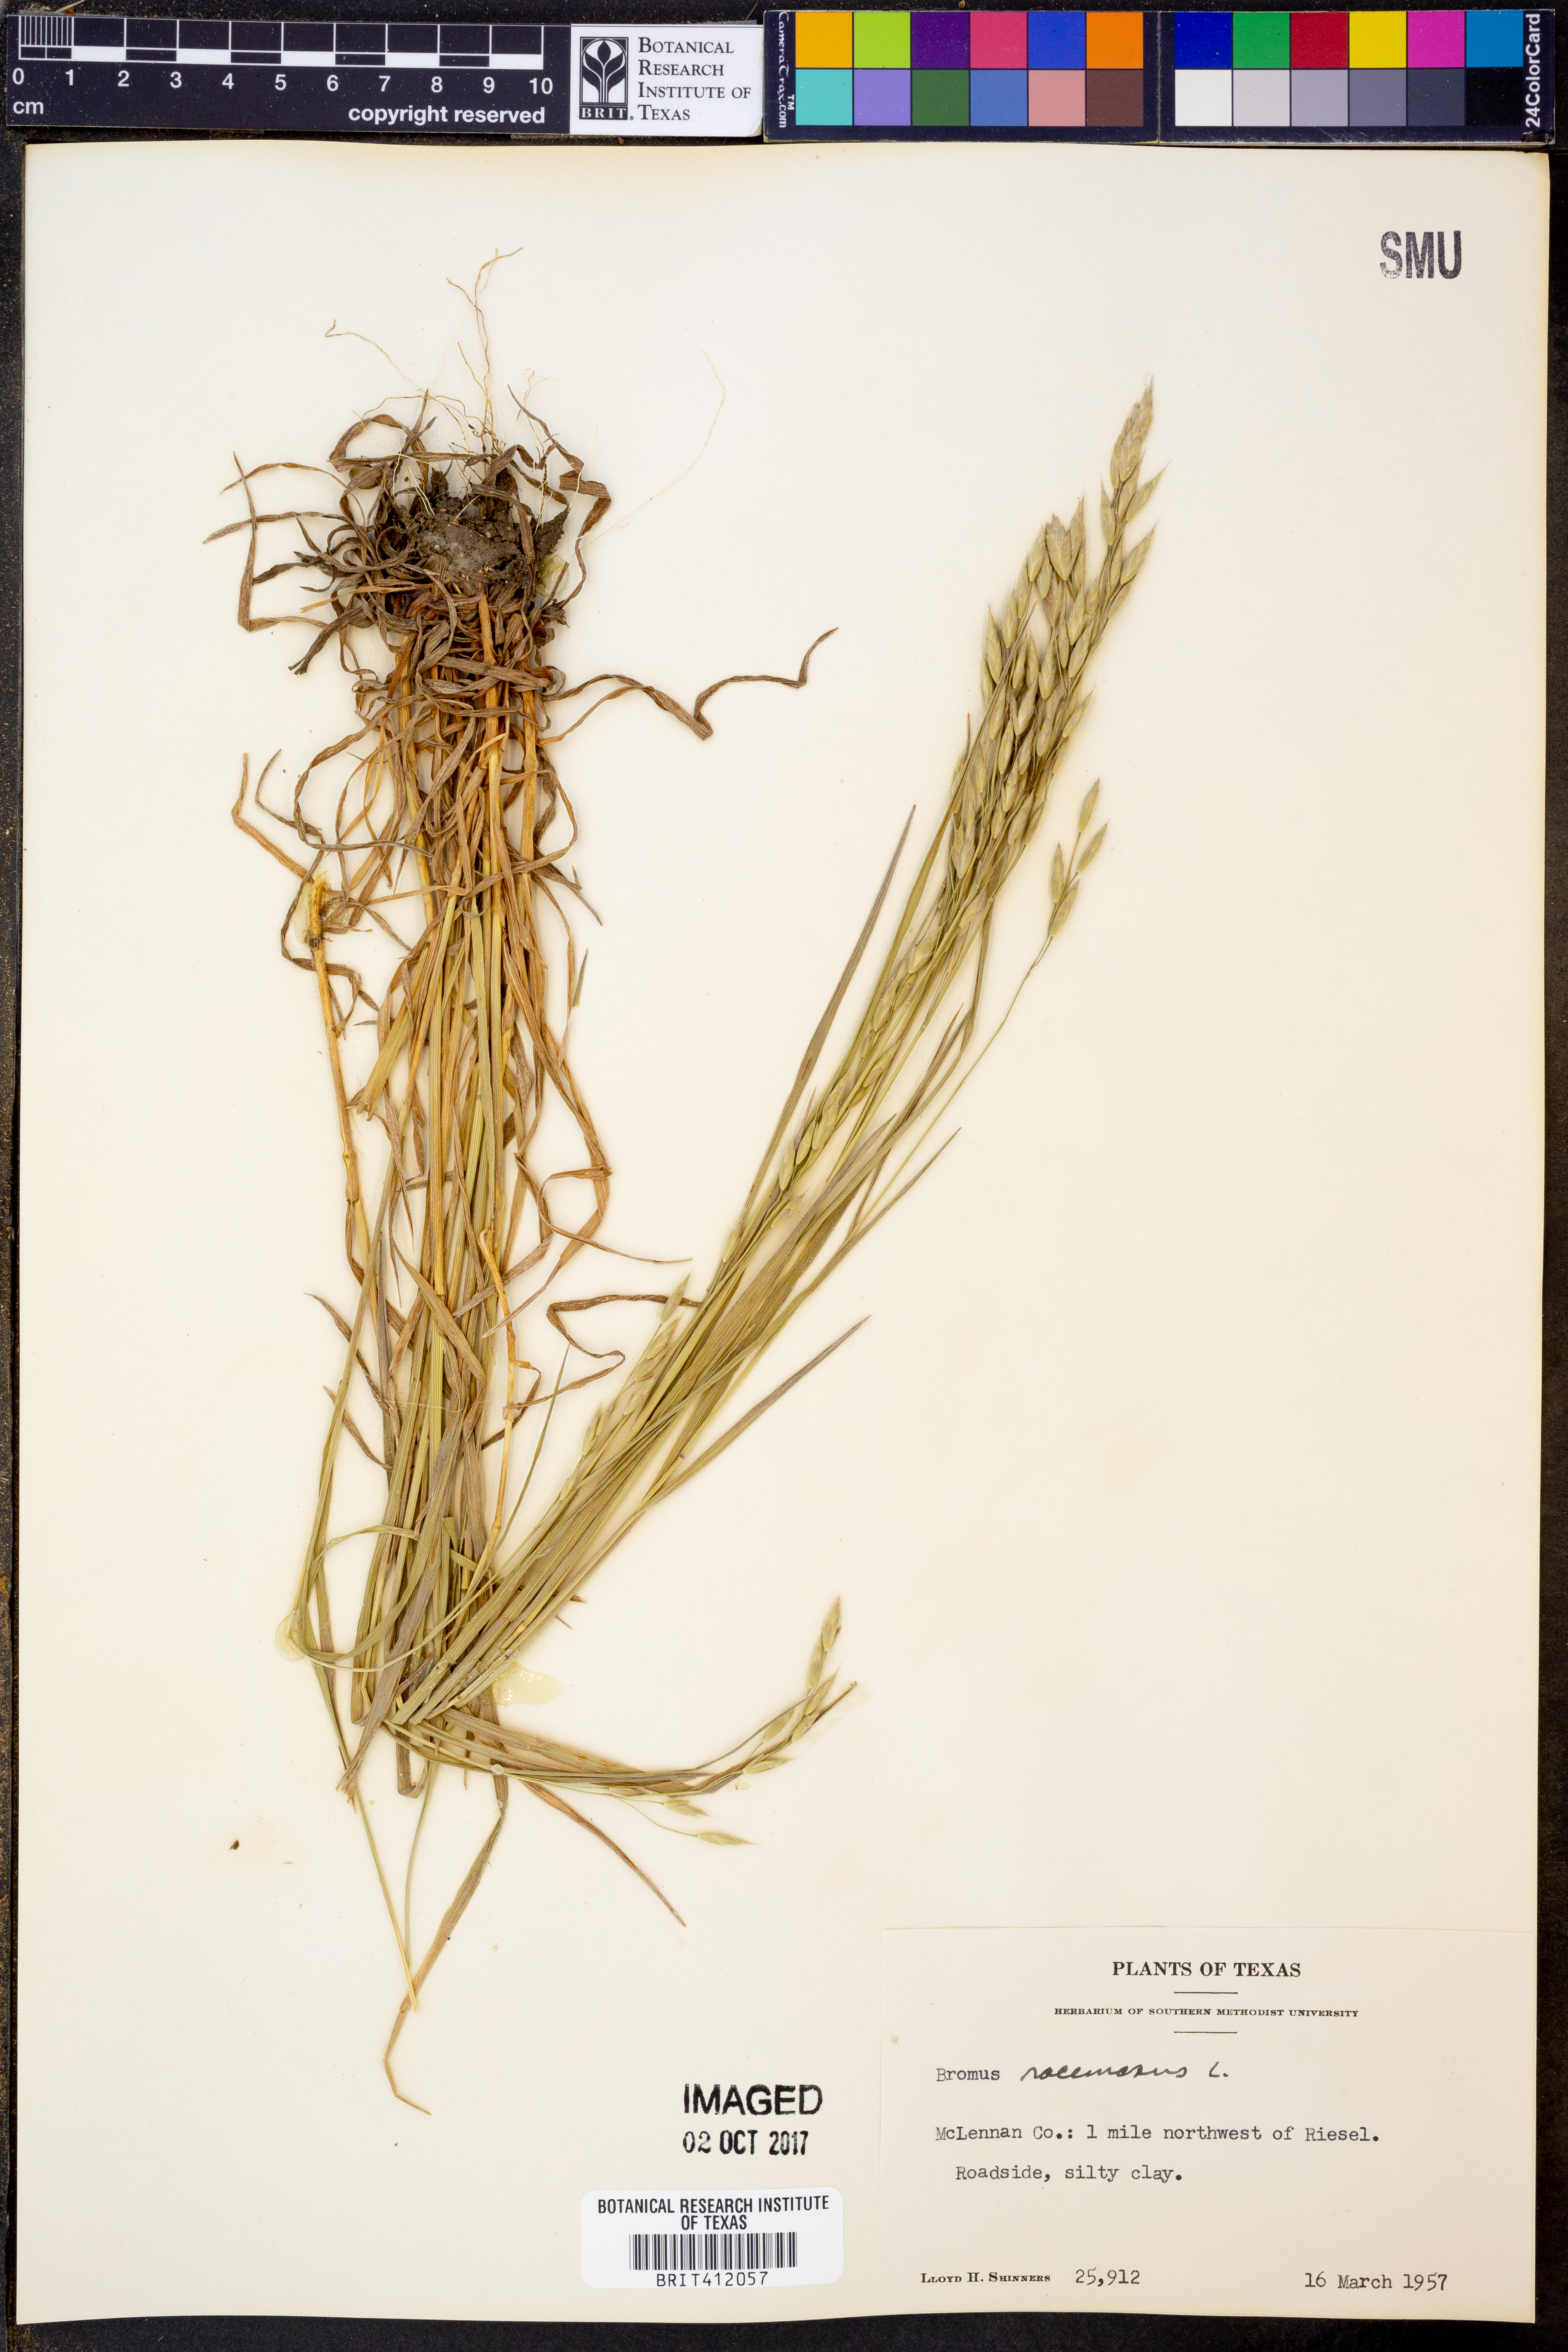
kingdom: Plantae
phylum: Tracheophyta
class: Liliopsida
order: Poales
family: Poaceae
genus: Bromus
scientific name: Bromus racemosus
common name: Bald brome
